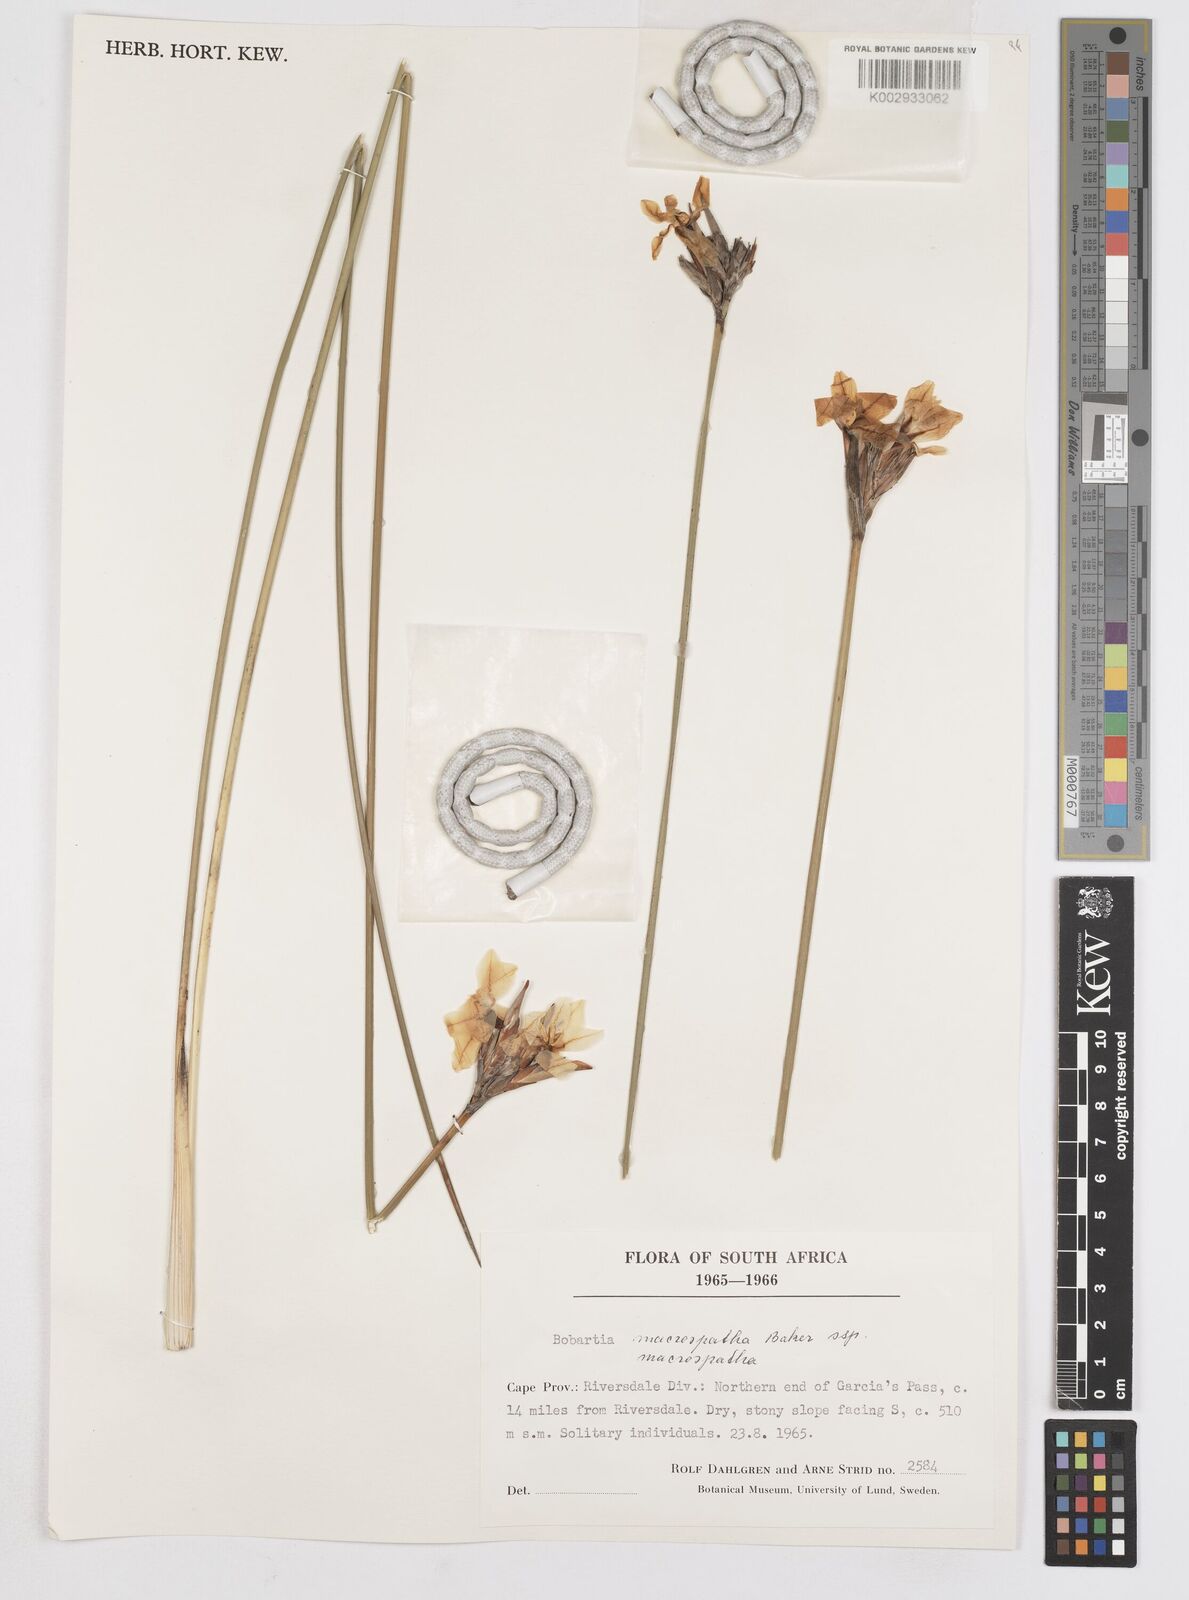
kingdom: Plantae
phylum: Tracheophyta
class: Liliopsida
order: Asparagales
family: Iridaceae
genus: Bobartia
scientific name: Bobartia macrospatha
